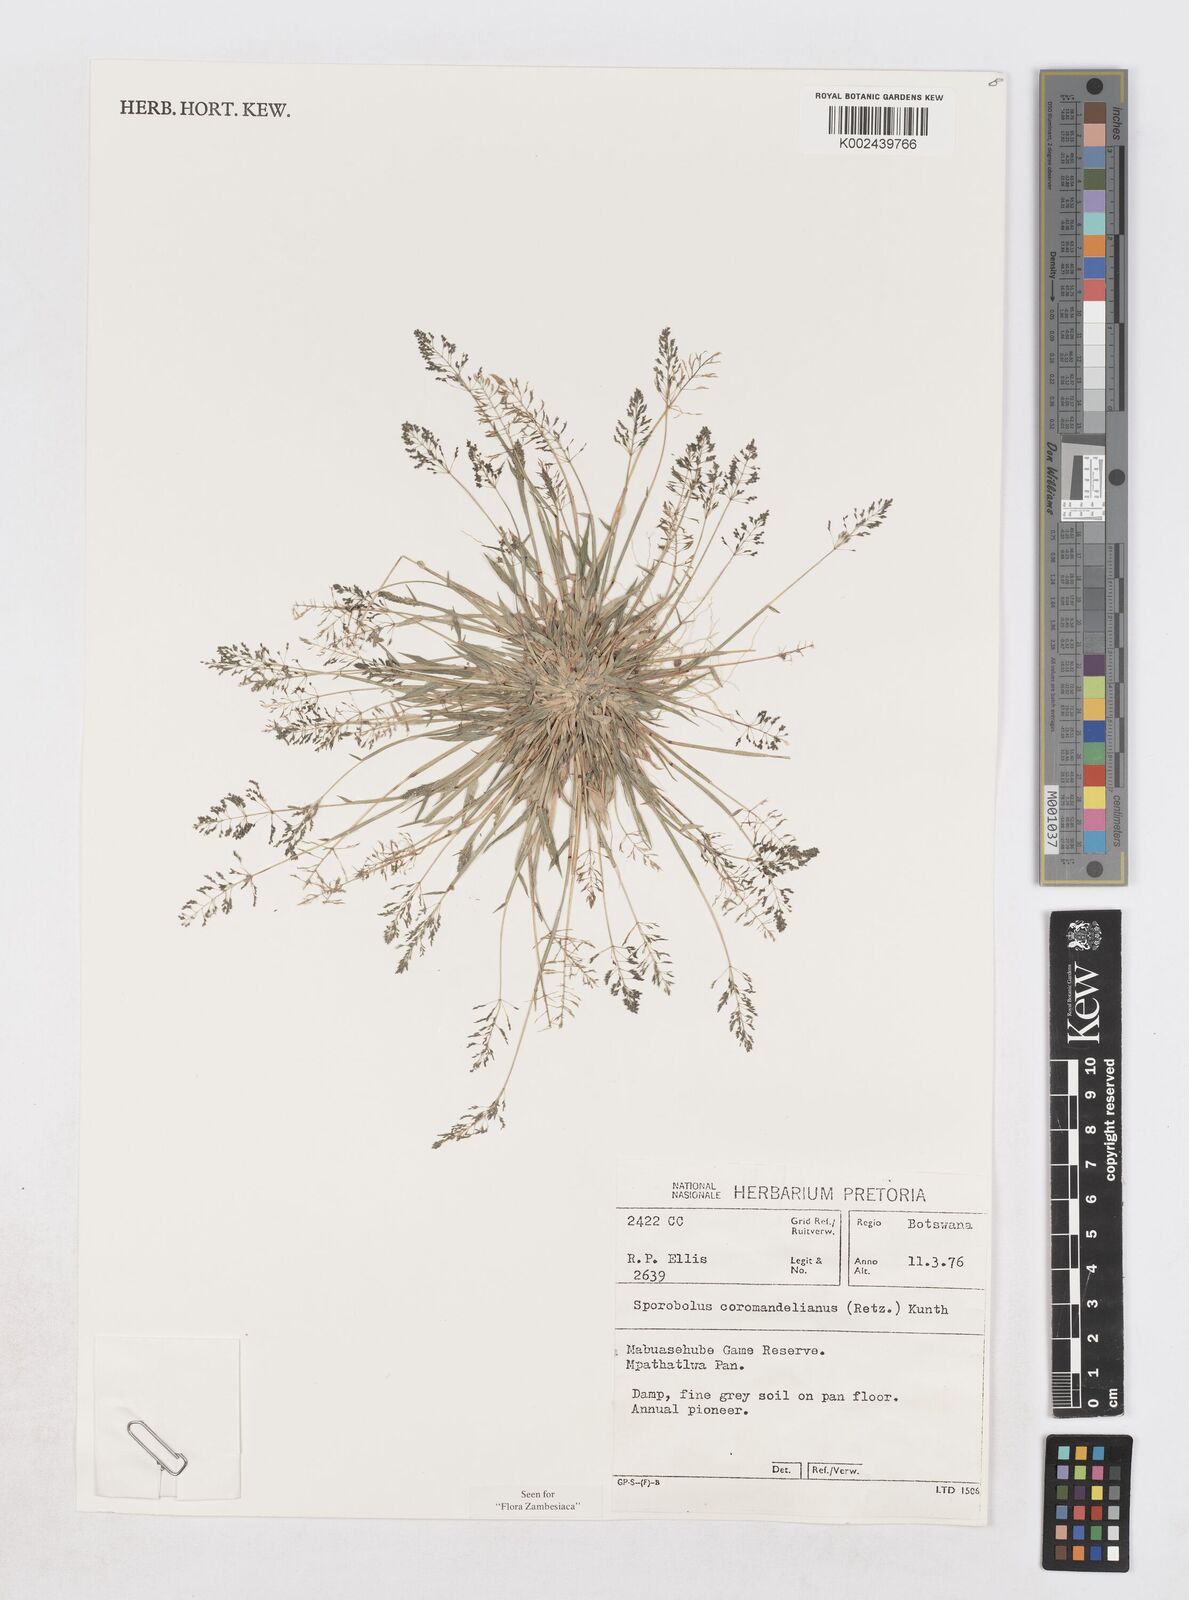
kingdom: Plantae
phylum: Tracheophyta
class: Liliopsida
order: Poales
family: Poaceae
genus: Sporobolus
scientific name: Sporobolus coromandelianus
